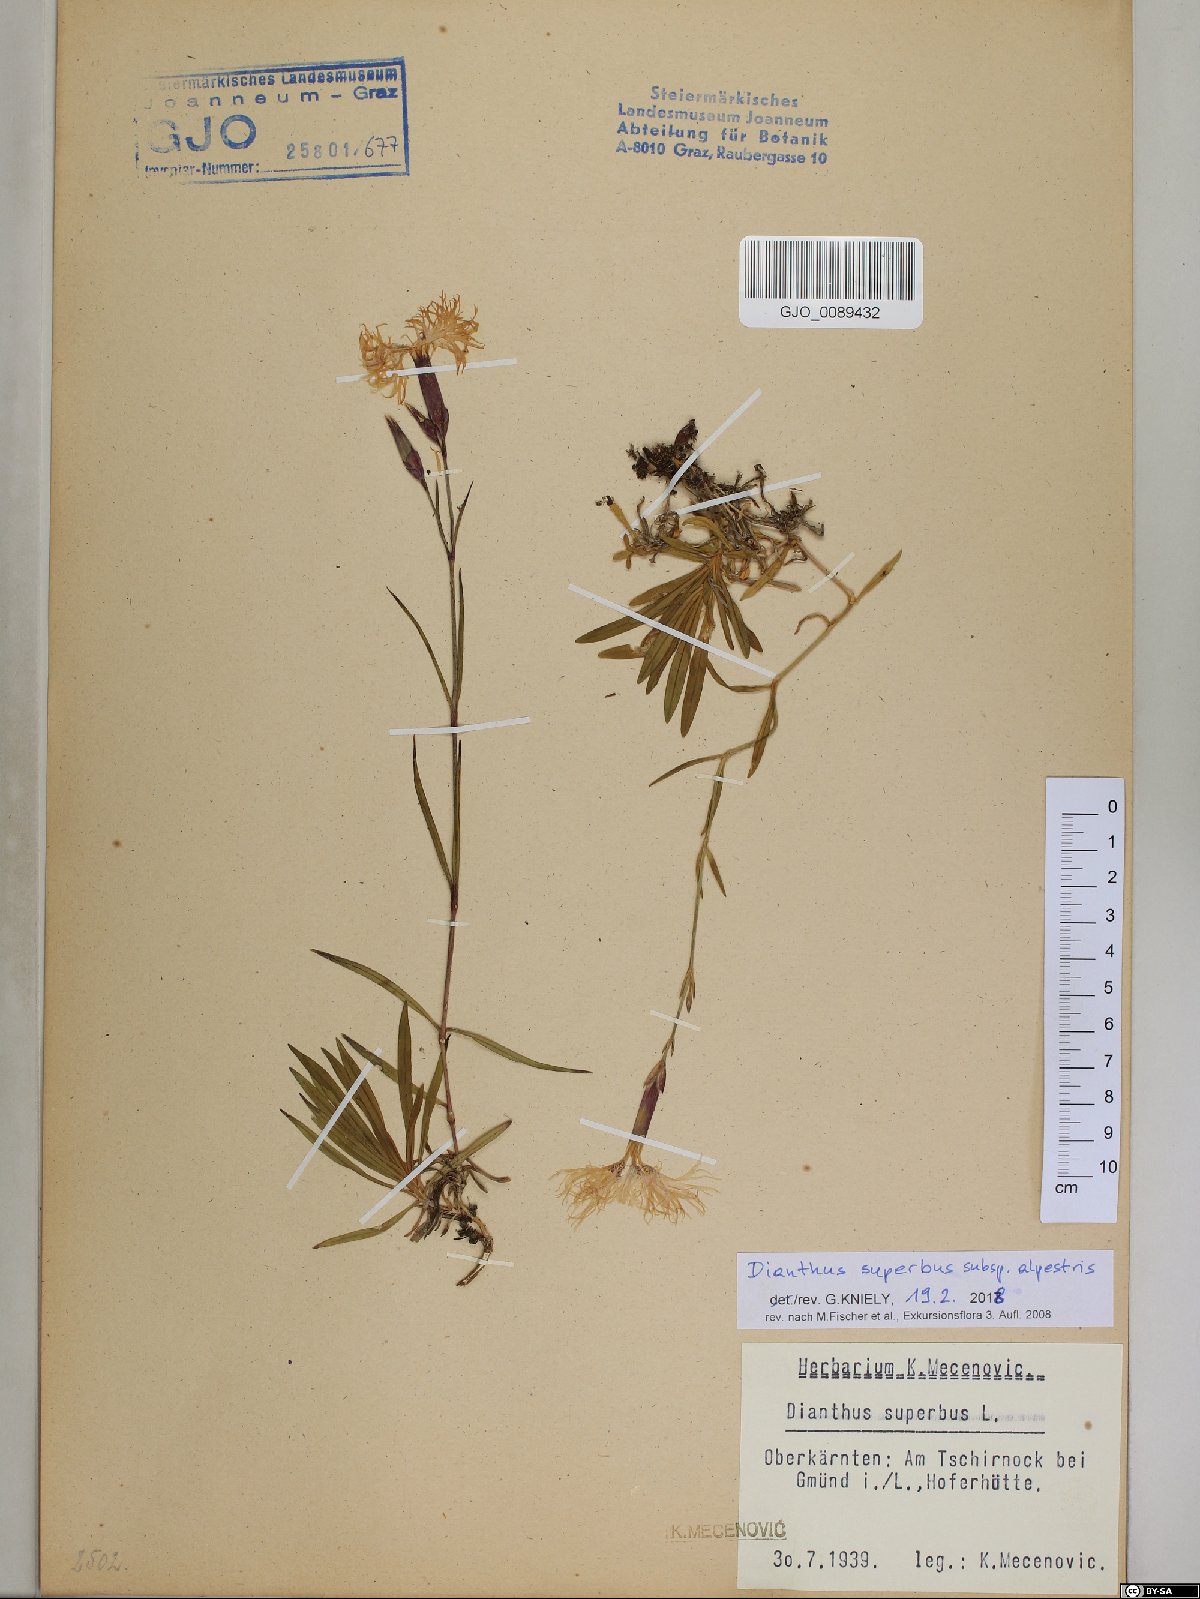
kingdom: Plantae
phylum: Tracheophyta
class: Magnoliopsida
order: Caryophyllales
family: Caryophyllaceae
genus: Dianthus
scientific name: Dianthus superbus
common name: Fringed pink
